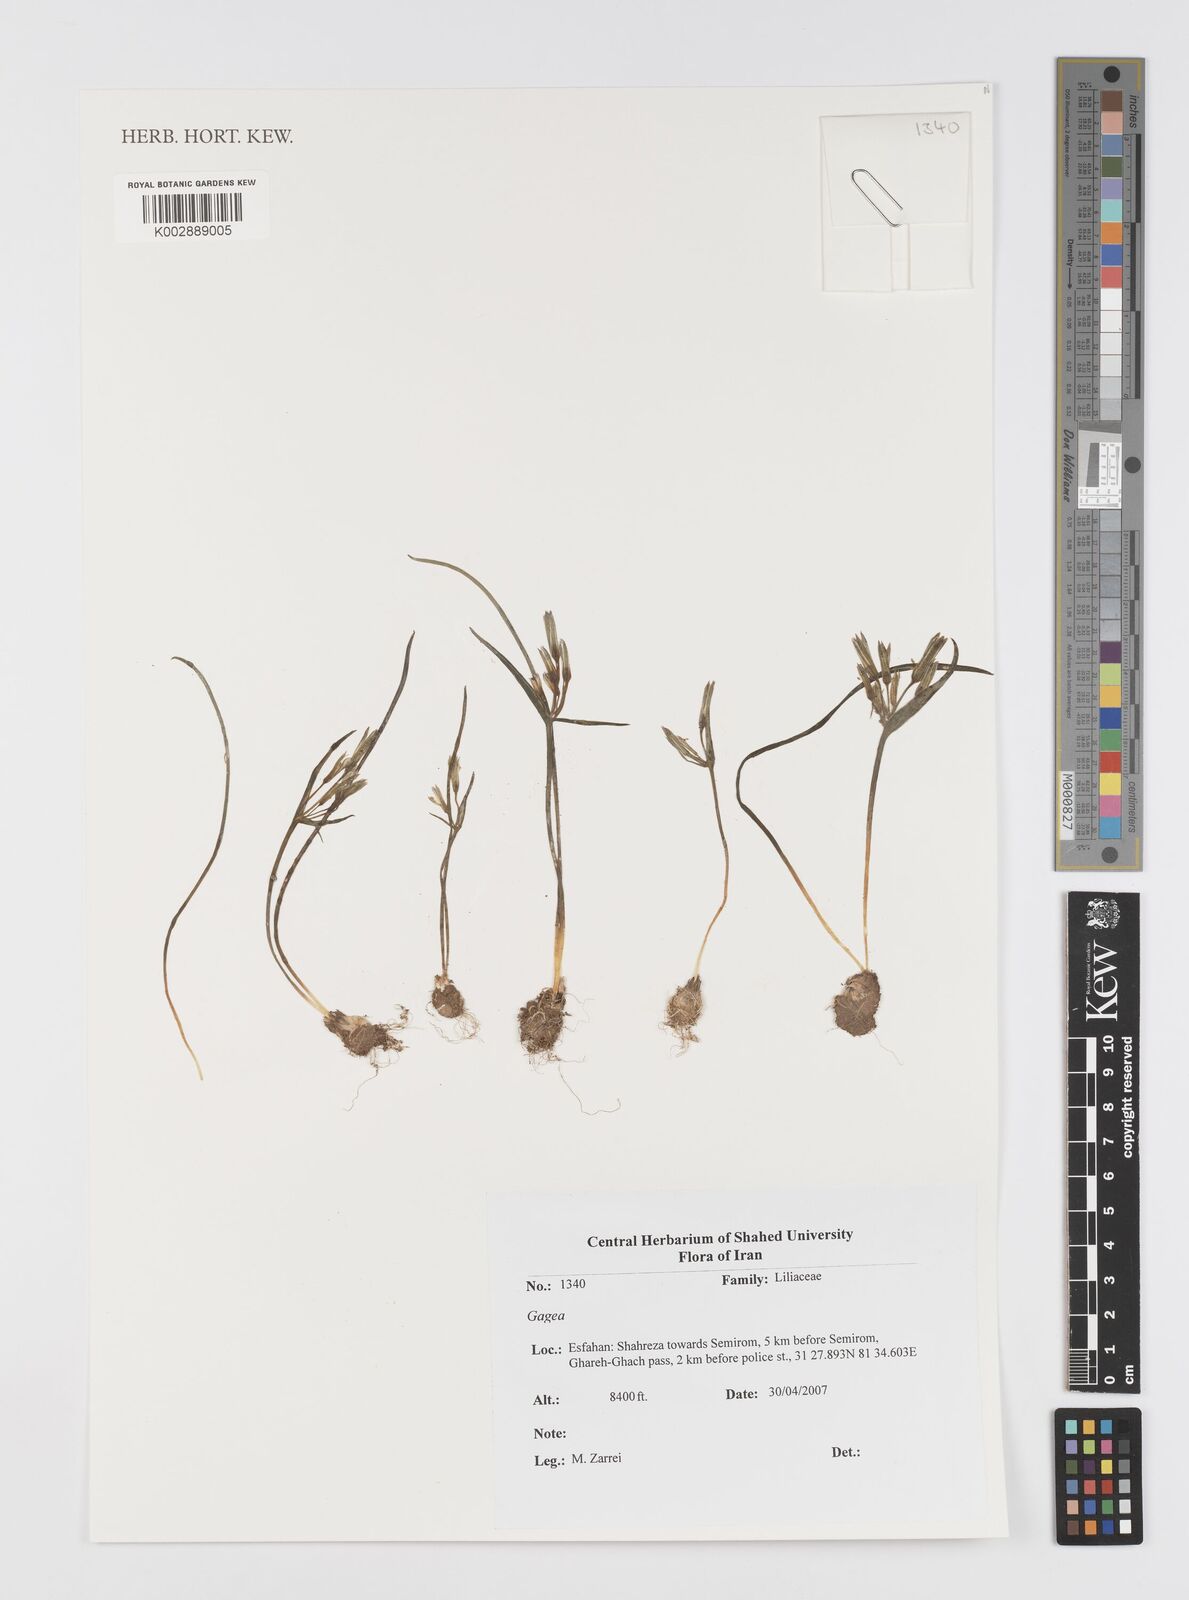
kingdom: Plantae
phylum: Tracheophyta
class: Liliopsida
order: Liliales
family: Liliaceae
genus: Gagea
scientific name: Gagea
